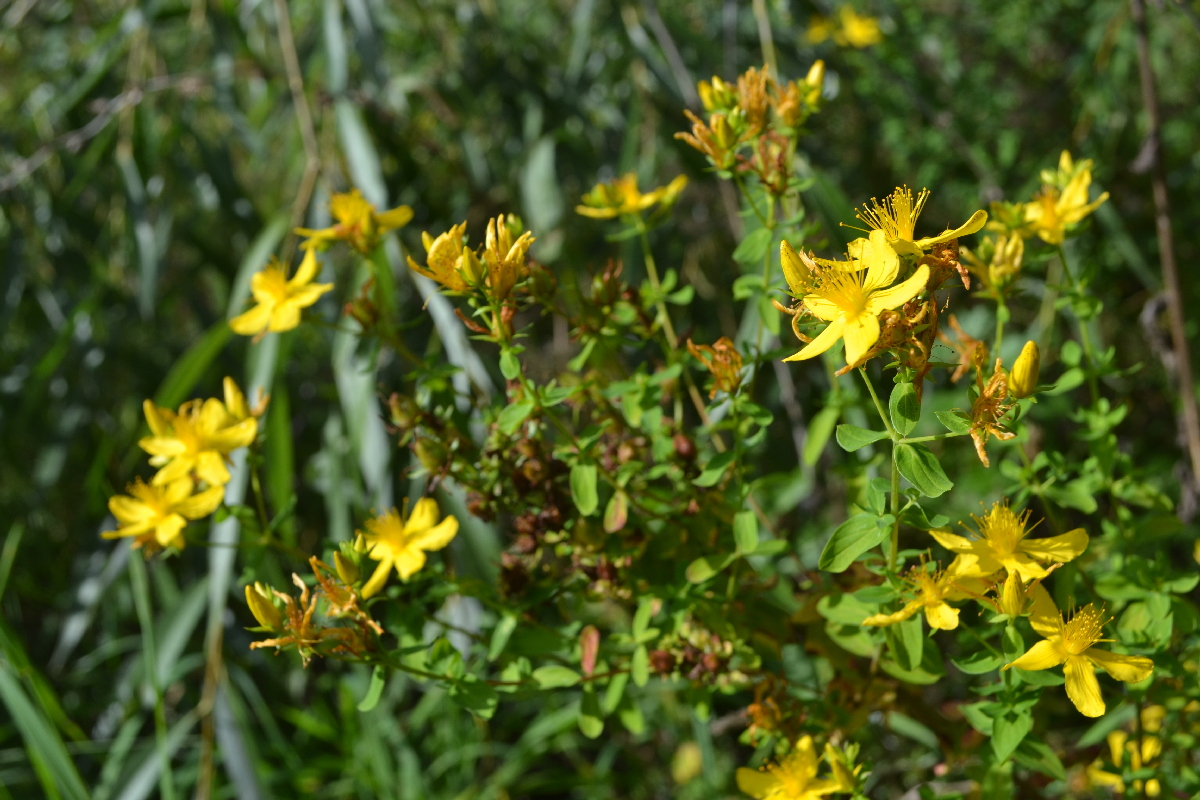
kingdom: Plantae
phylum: Tracheophyta
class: Magnoliopsida
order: Malpighiales
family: Hypericaceae
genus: Hypericum
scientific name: Hypericum perforatum
